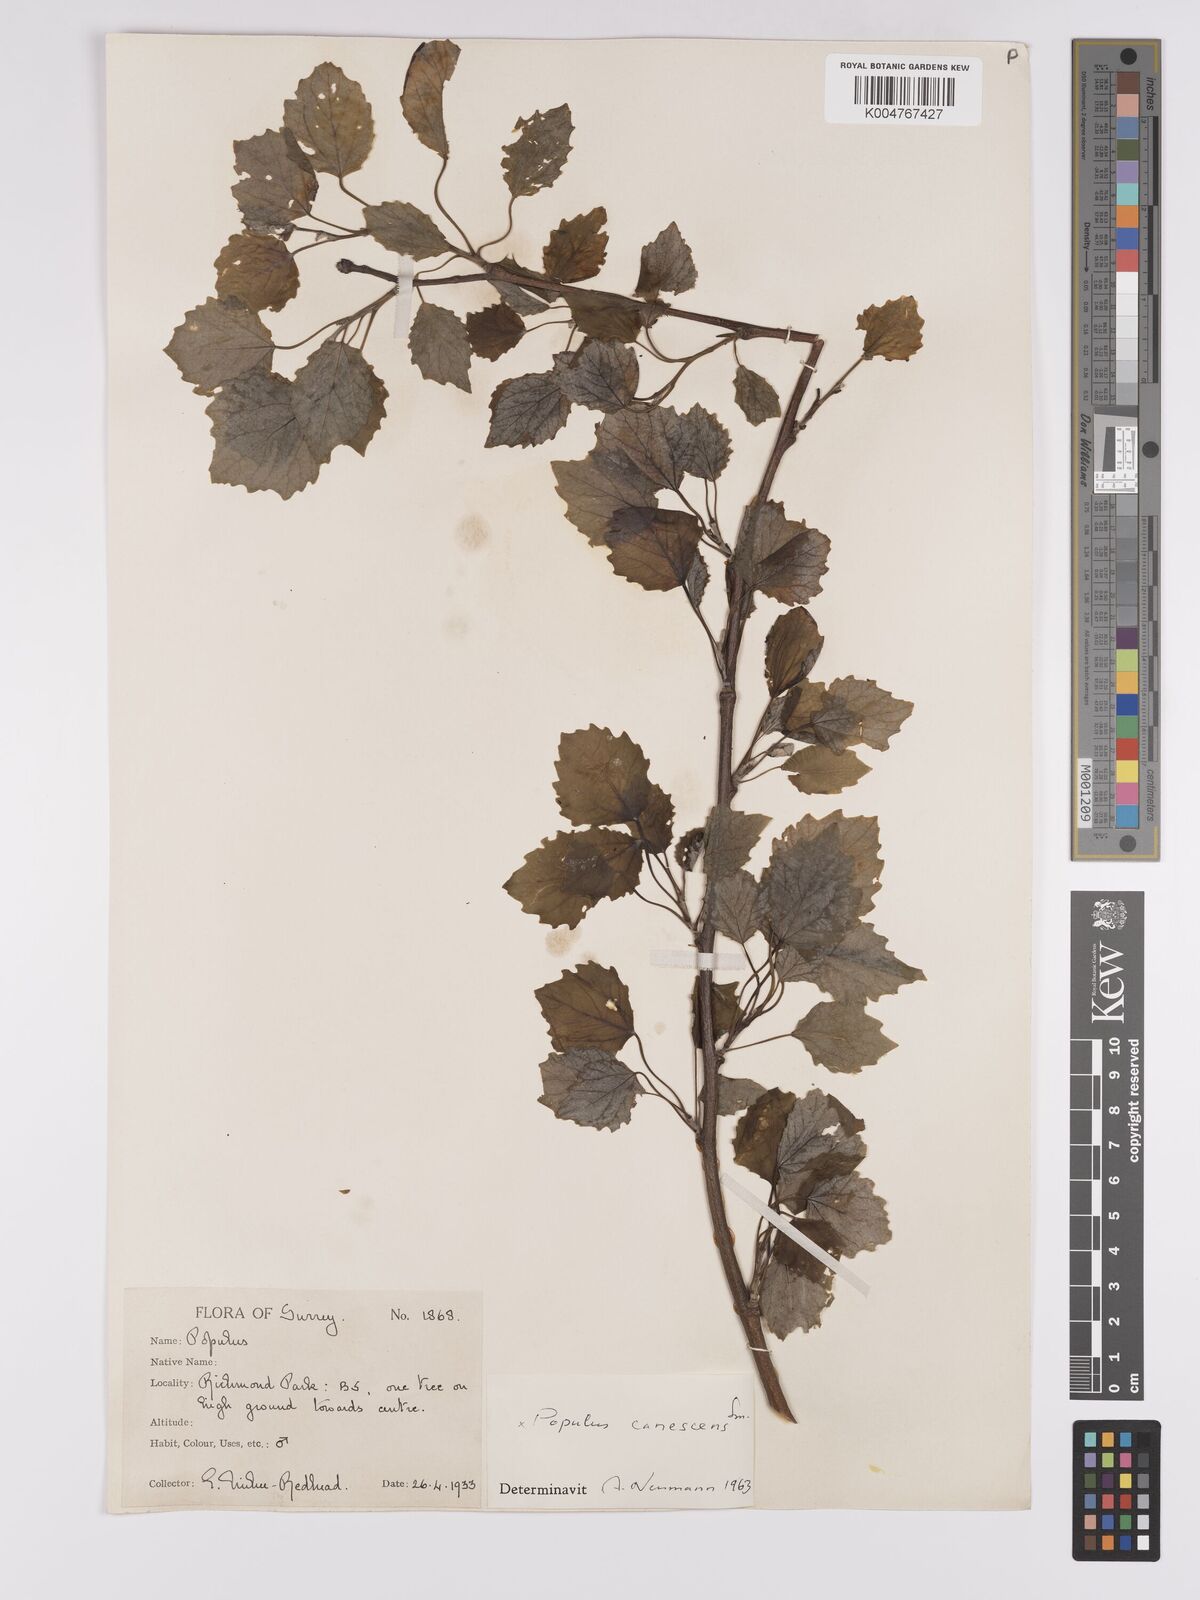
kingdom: Plantae
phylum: Tracheophyta
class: Magnoliopsida
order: Malpighiales
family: Salicaceae
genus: Populus
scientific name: Populus canescens
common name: Gray poplar
